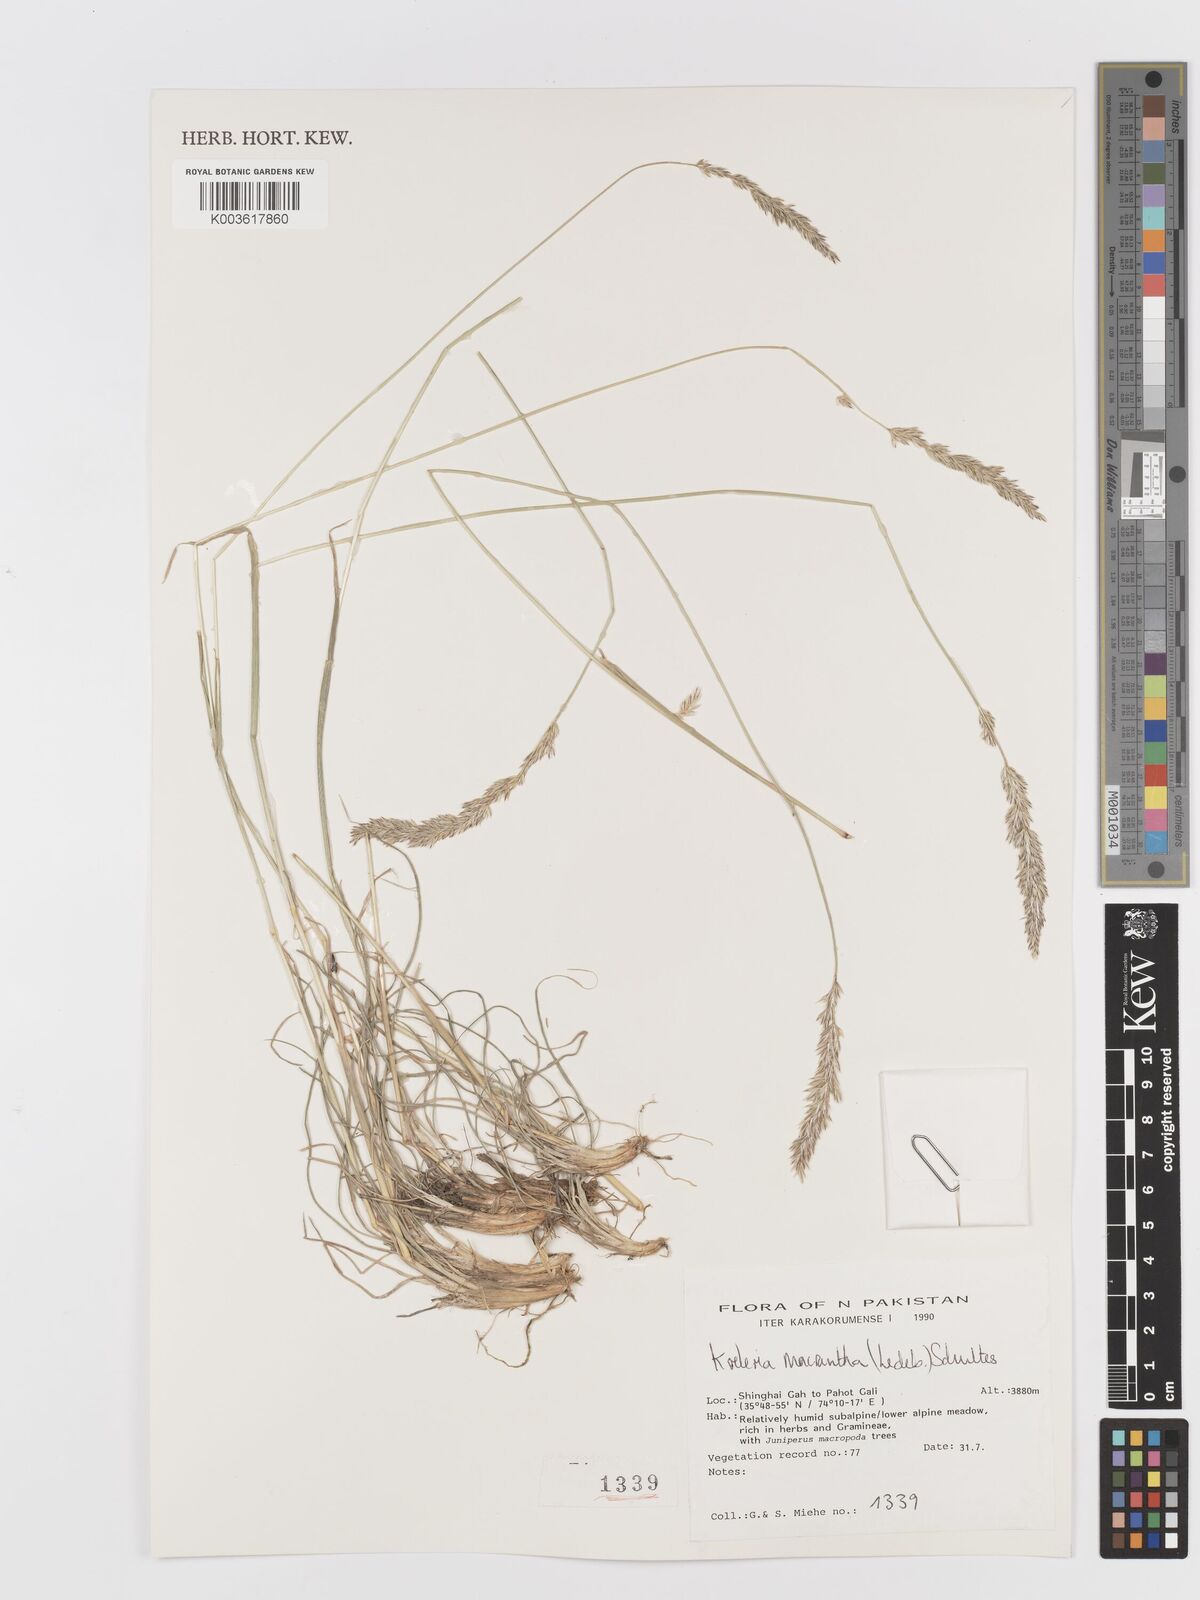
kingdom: Plantae
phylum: Tracheophyta
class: Liliopsida
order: Poales
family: Poaceae
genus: Koeleria
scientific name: Koeleria macrantha
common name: Crested hair-grass
